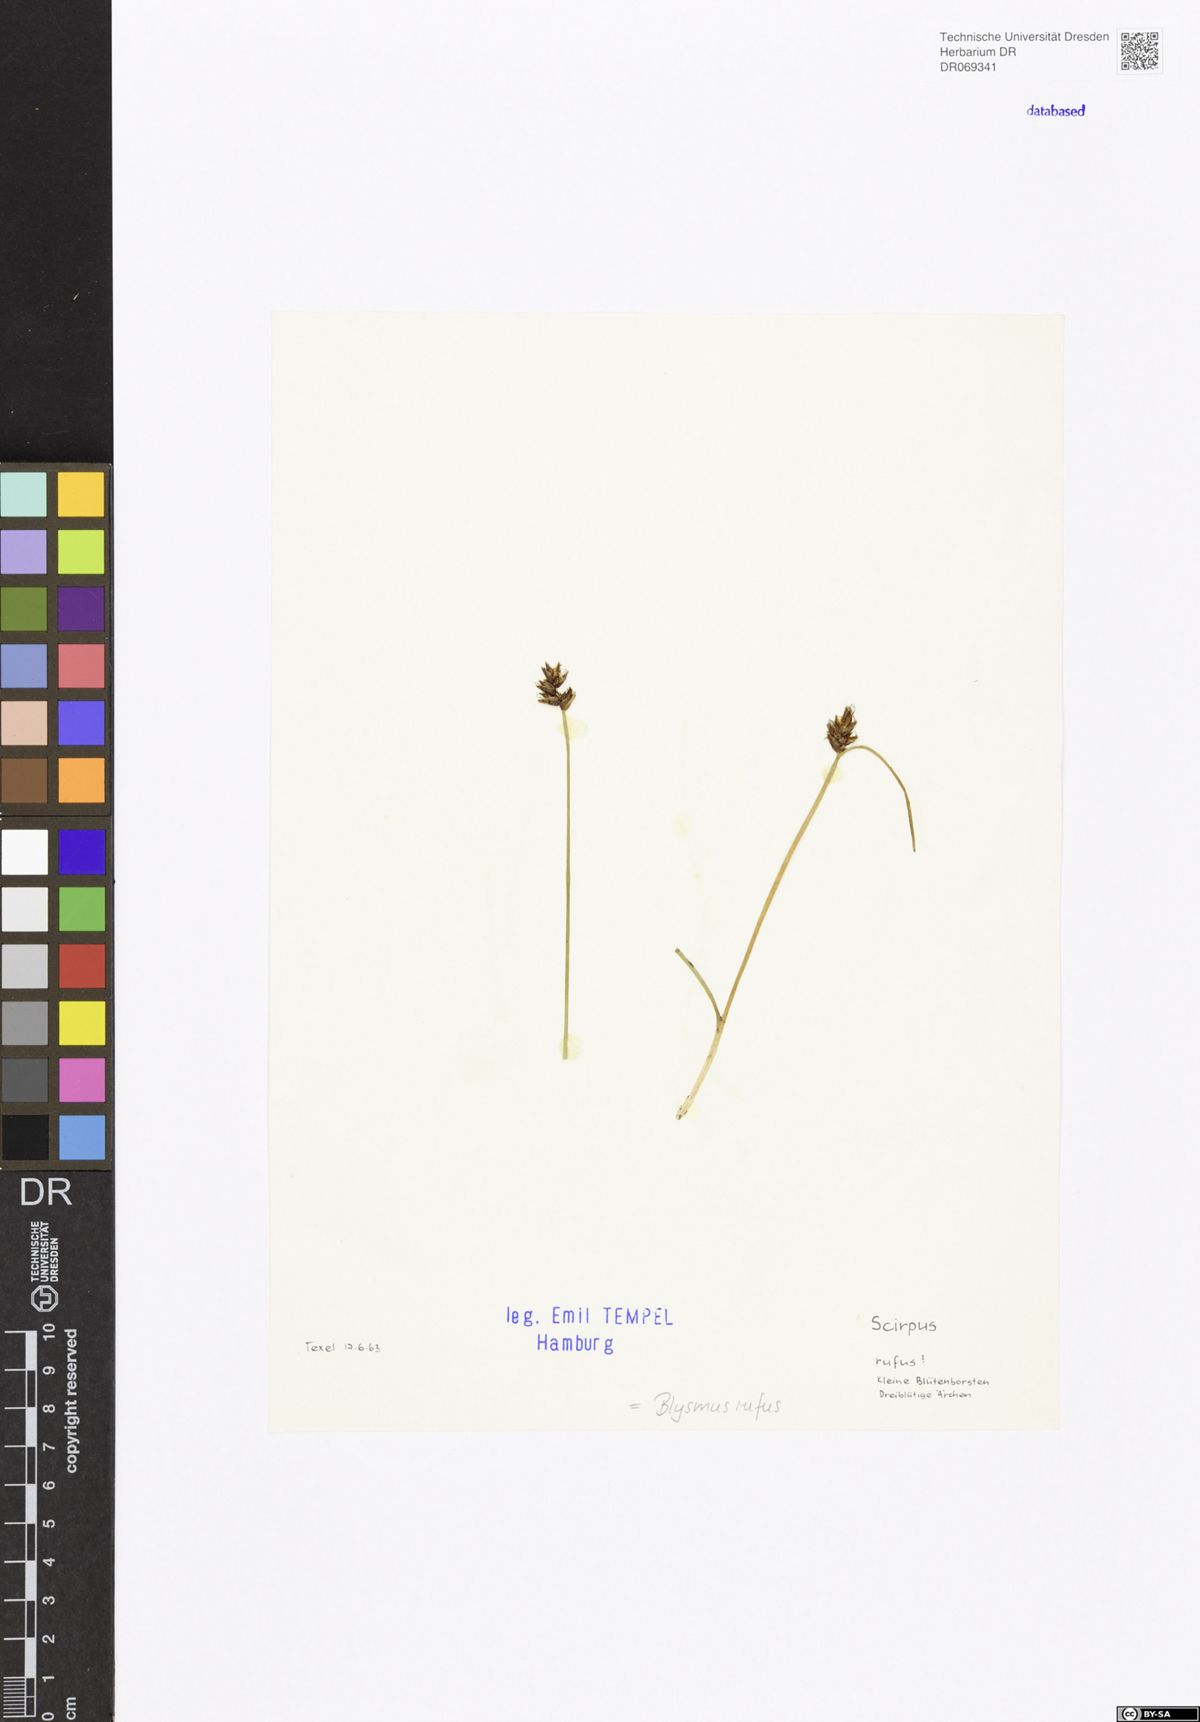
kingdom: Plantae
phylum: Tracheophyta
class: Liliopsida
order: Poales
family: Cyperaceae
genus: Blysmus
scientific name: Blysmus rufus
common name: Saltmarsh flat-sedge
